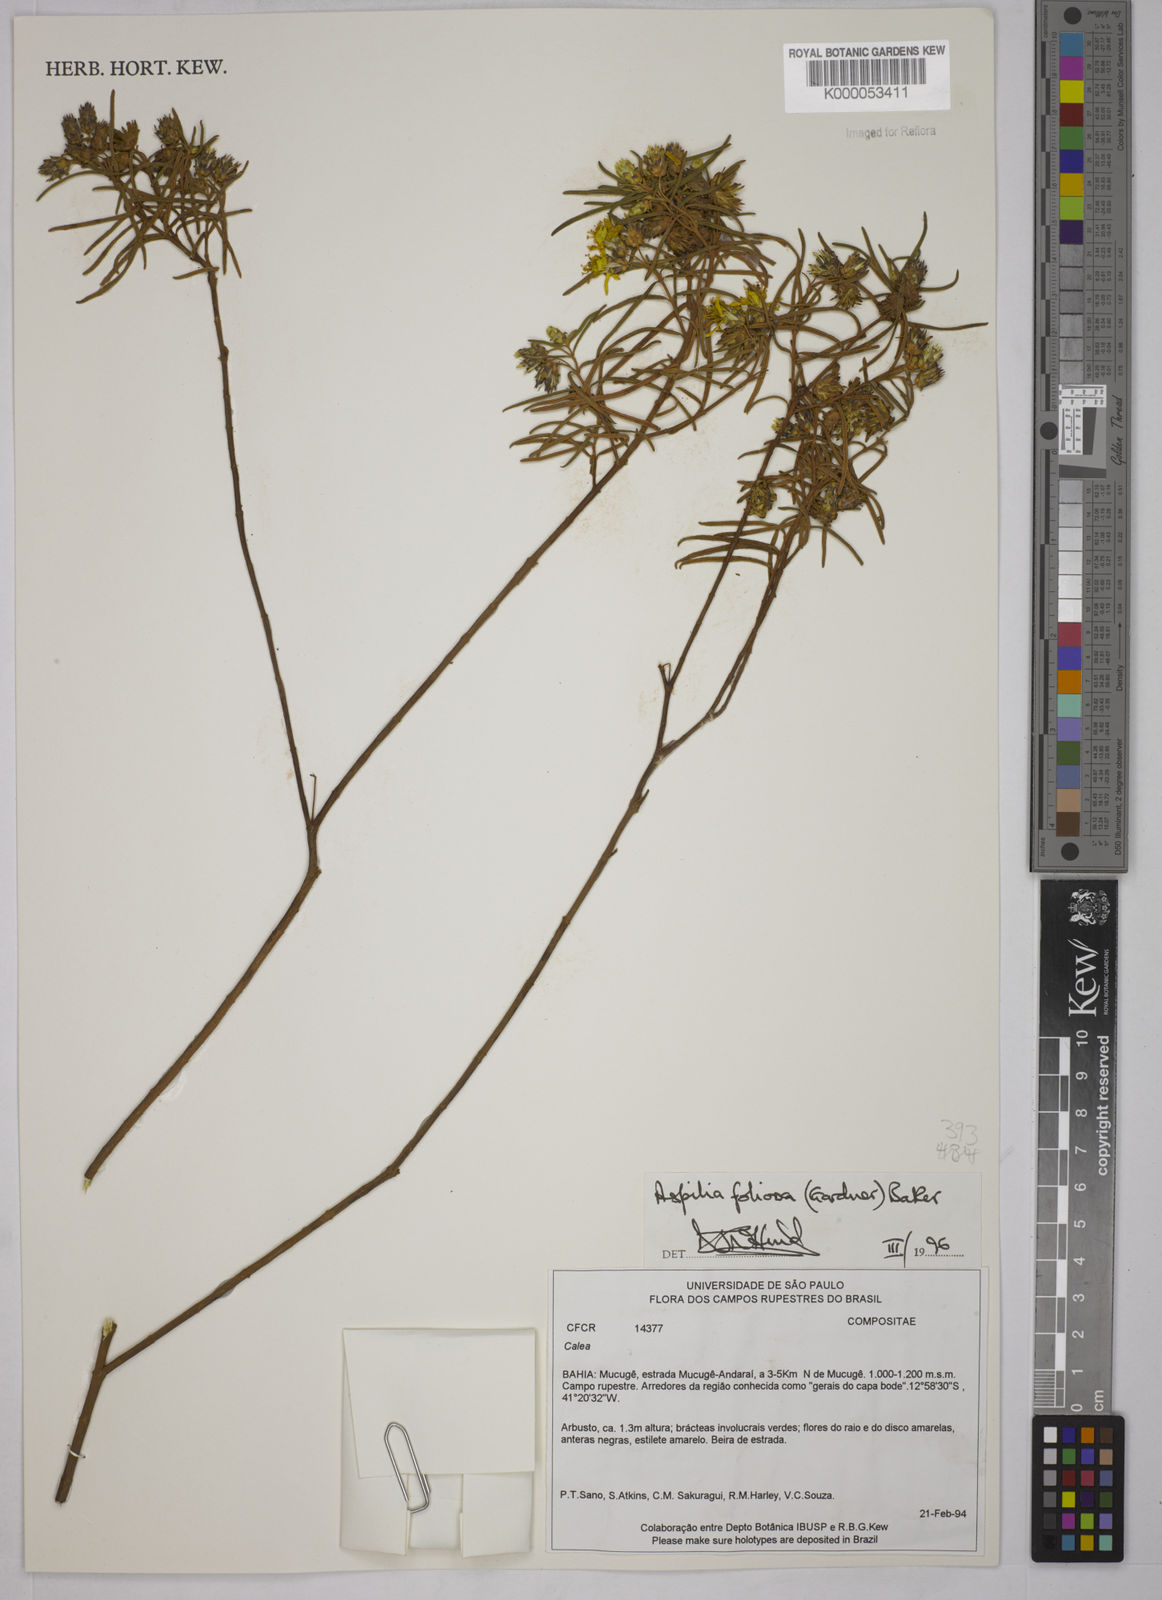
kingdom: Plantae
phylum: Tracheophyta
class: Magnoliopsida
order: Asterales
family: Asteraceae
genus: Aspilia
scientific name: Aspilia
